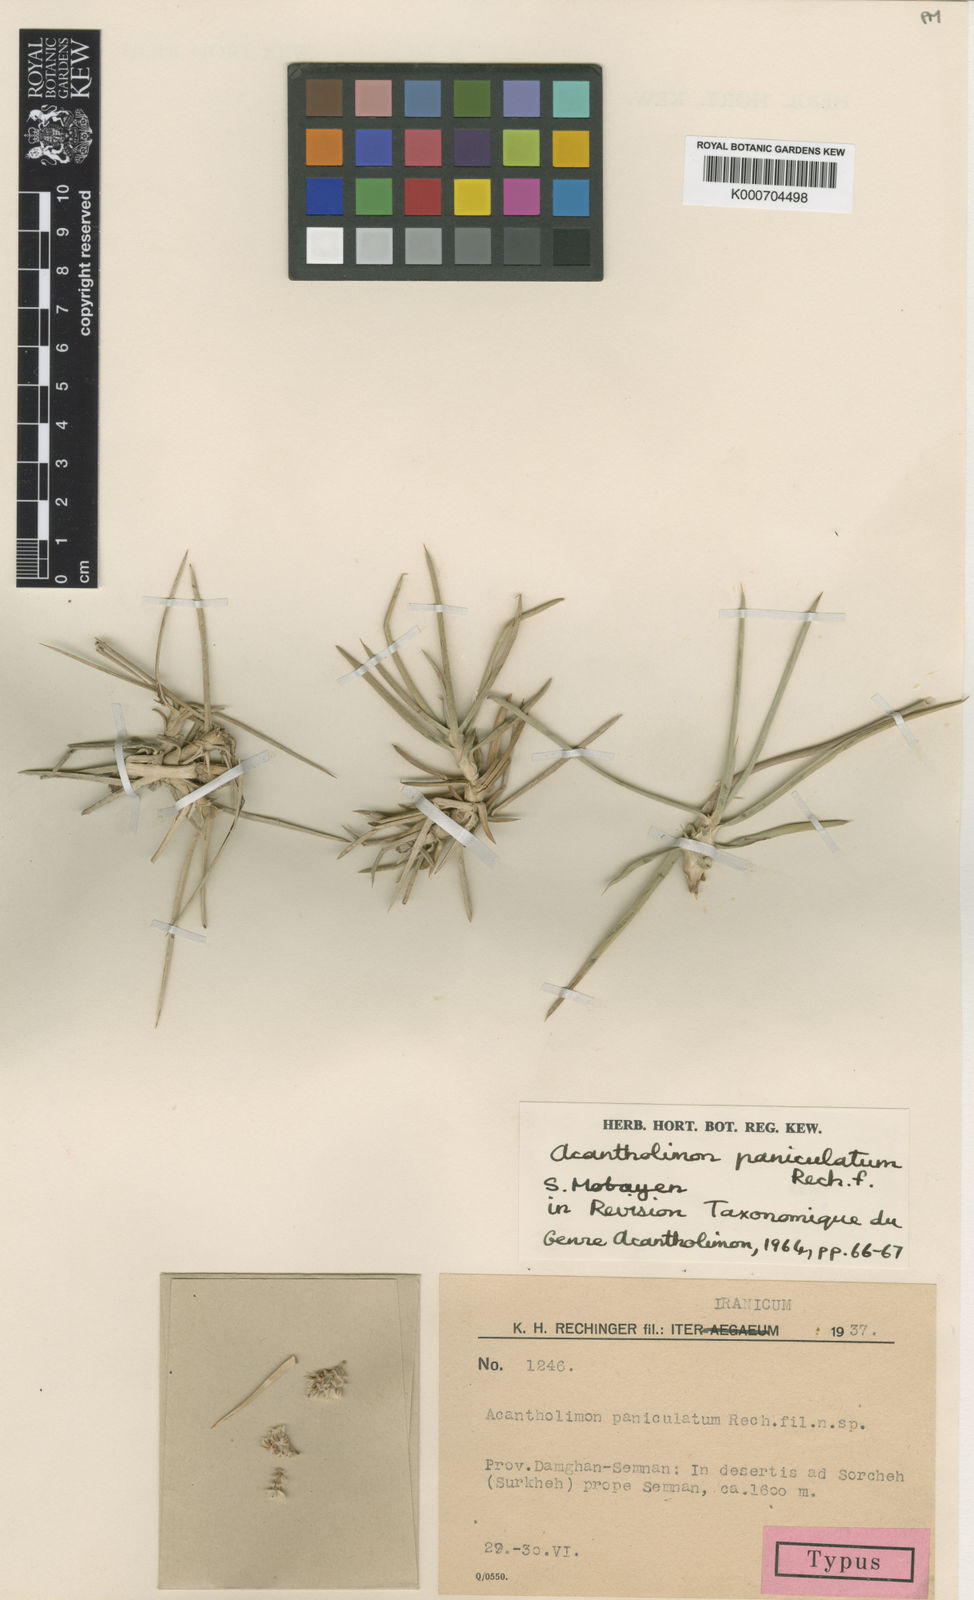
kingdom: Plantae
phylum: Tracheophyta
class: Magnoliopsida
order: Caryophyllales
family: Plumbaginaceae
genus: Acantholimon
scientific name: Acantholimon cymosum
